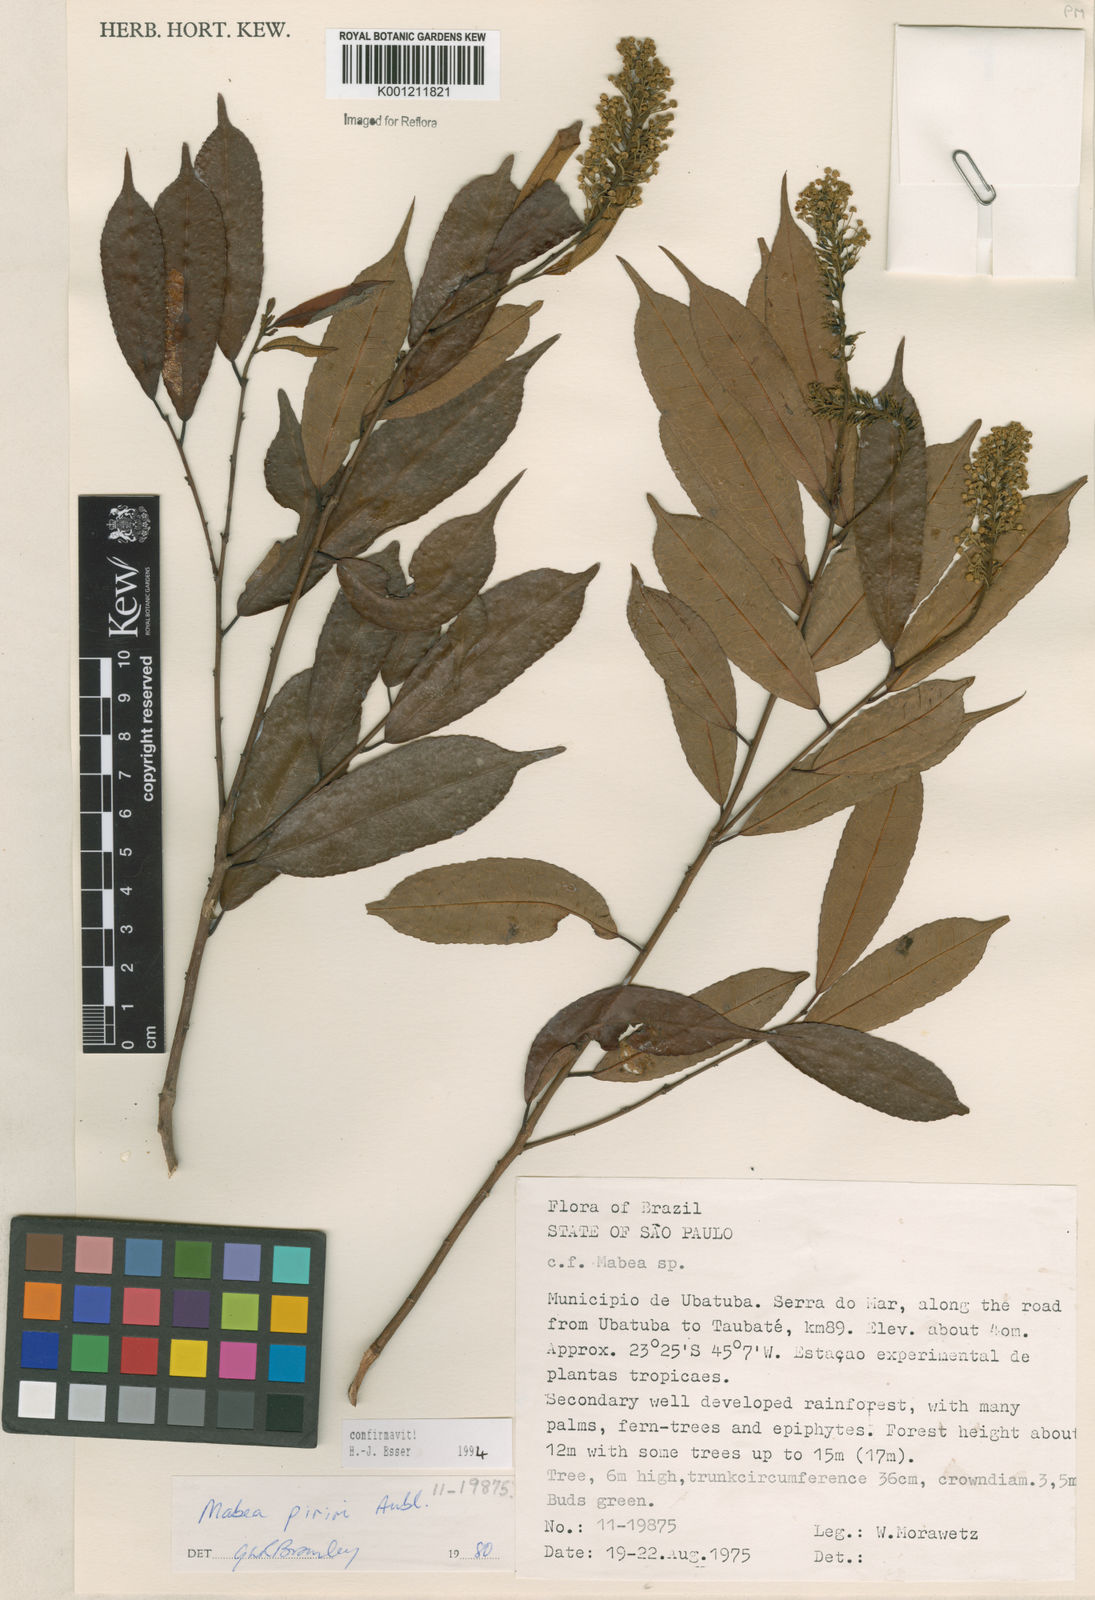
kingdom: Plantae
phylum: Tracheophyta
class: Magnoliopsida
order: Malpighiales
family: Euphorbiaceae
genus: Mabea
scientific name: Mabea piriri
